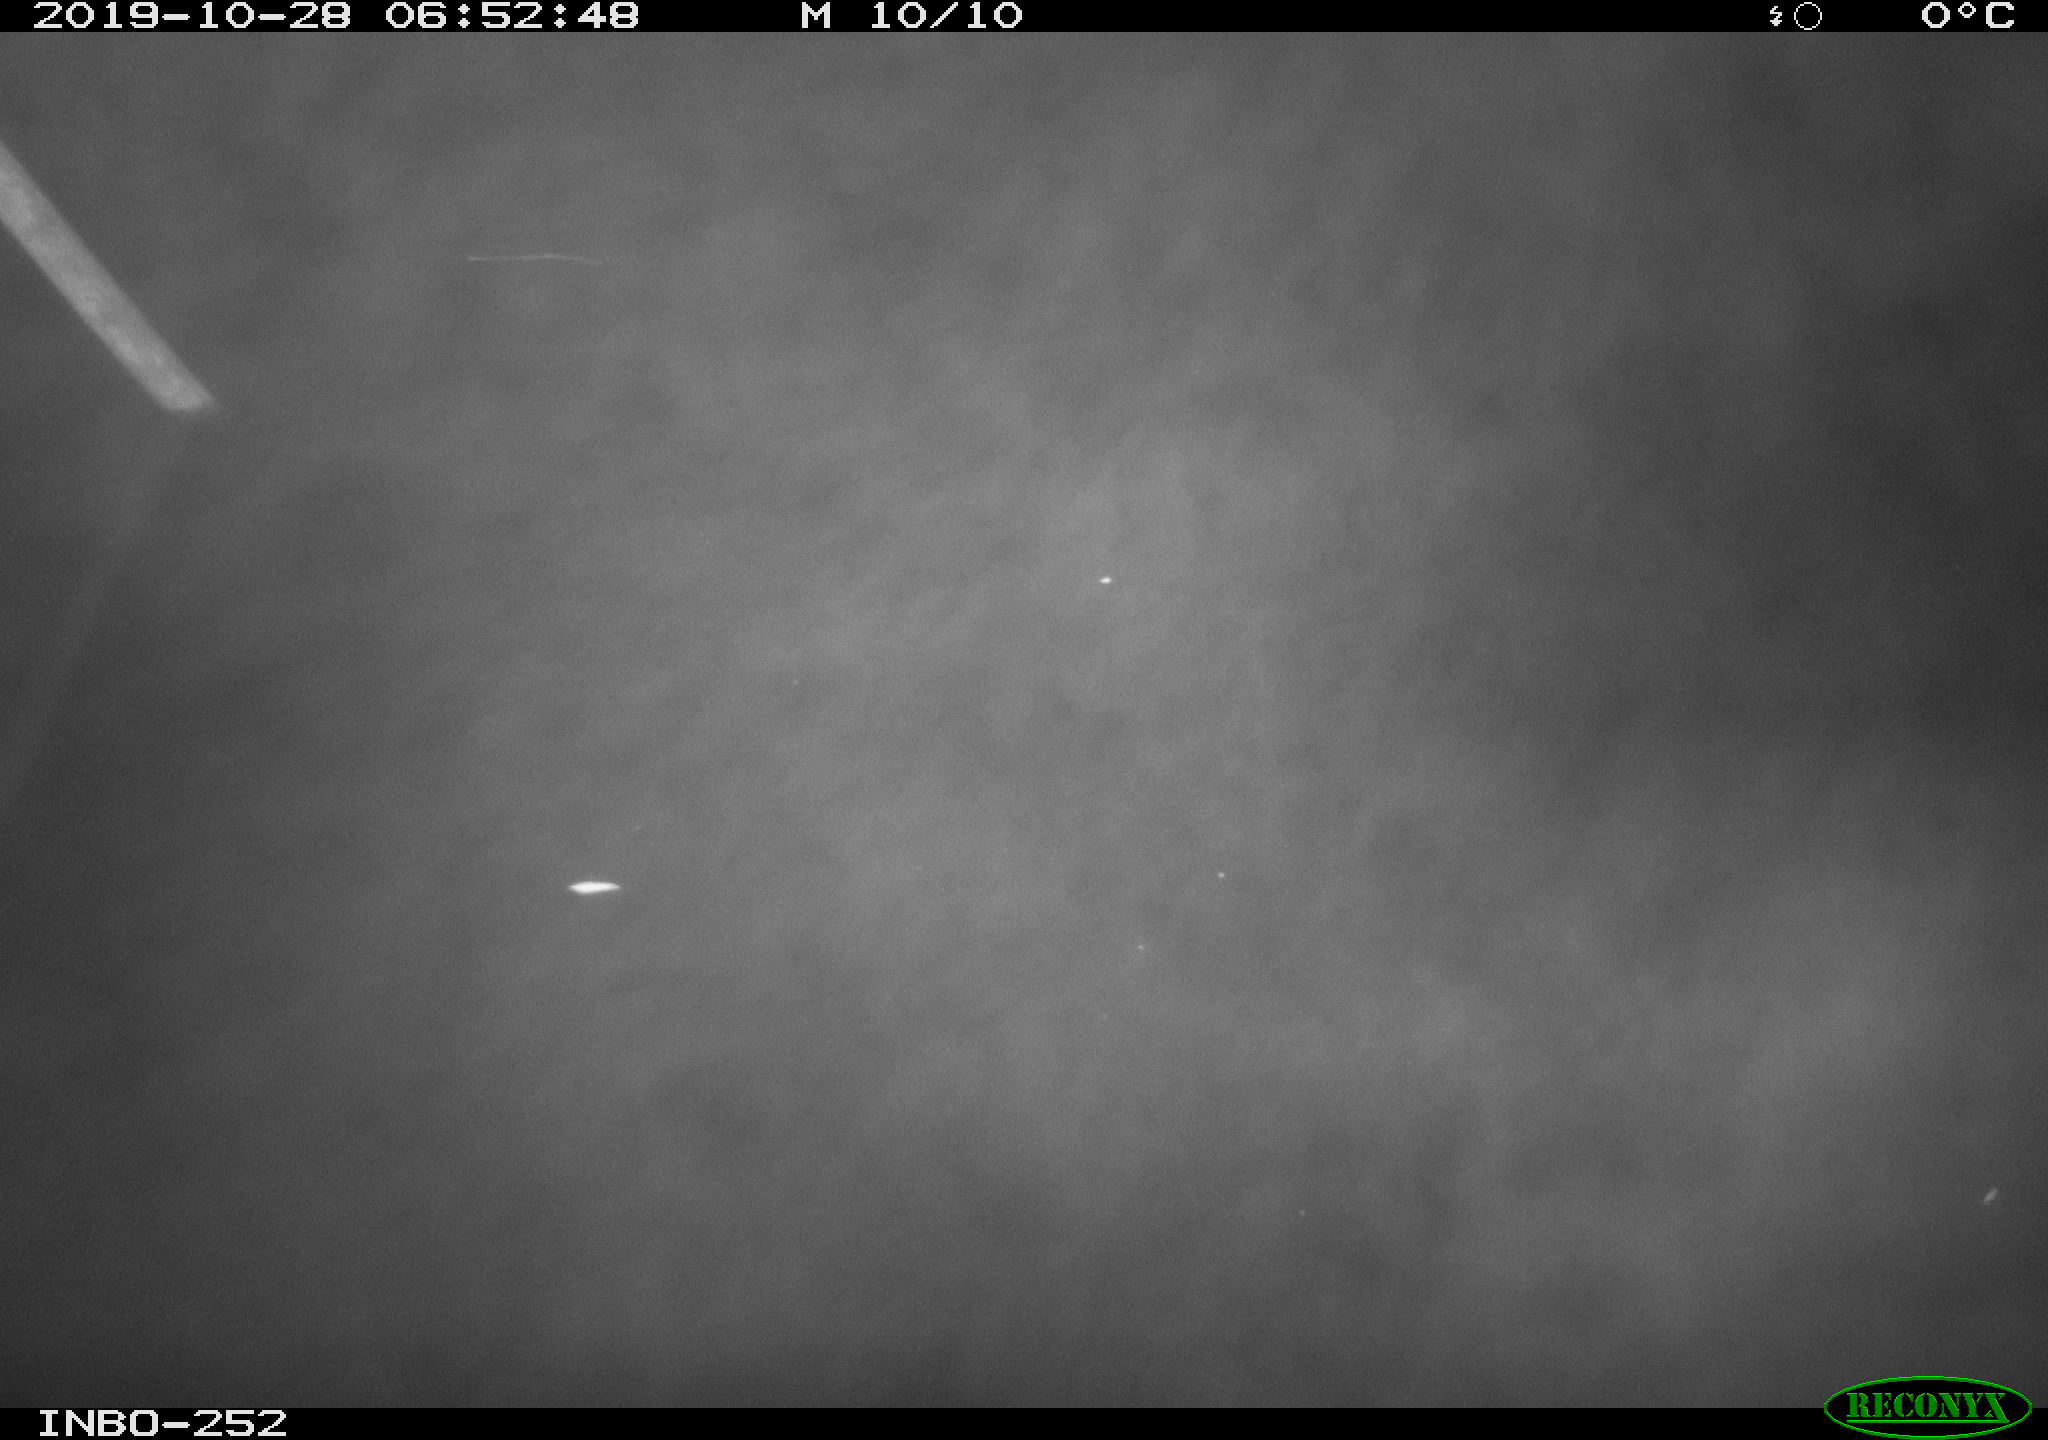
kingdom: Animalia
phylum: Chordata
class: Aves
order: Anseriformes
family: Anatidae
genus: Anas
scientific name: Anas platyrhynchos
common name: Mallard
